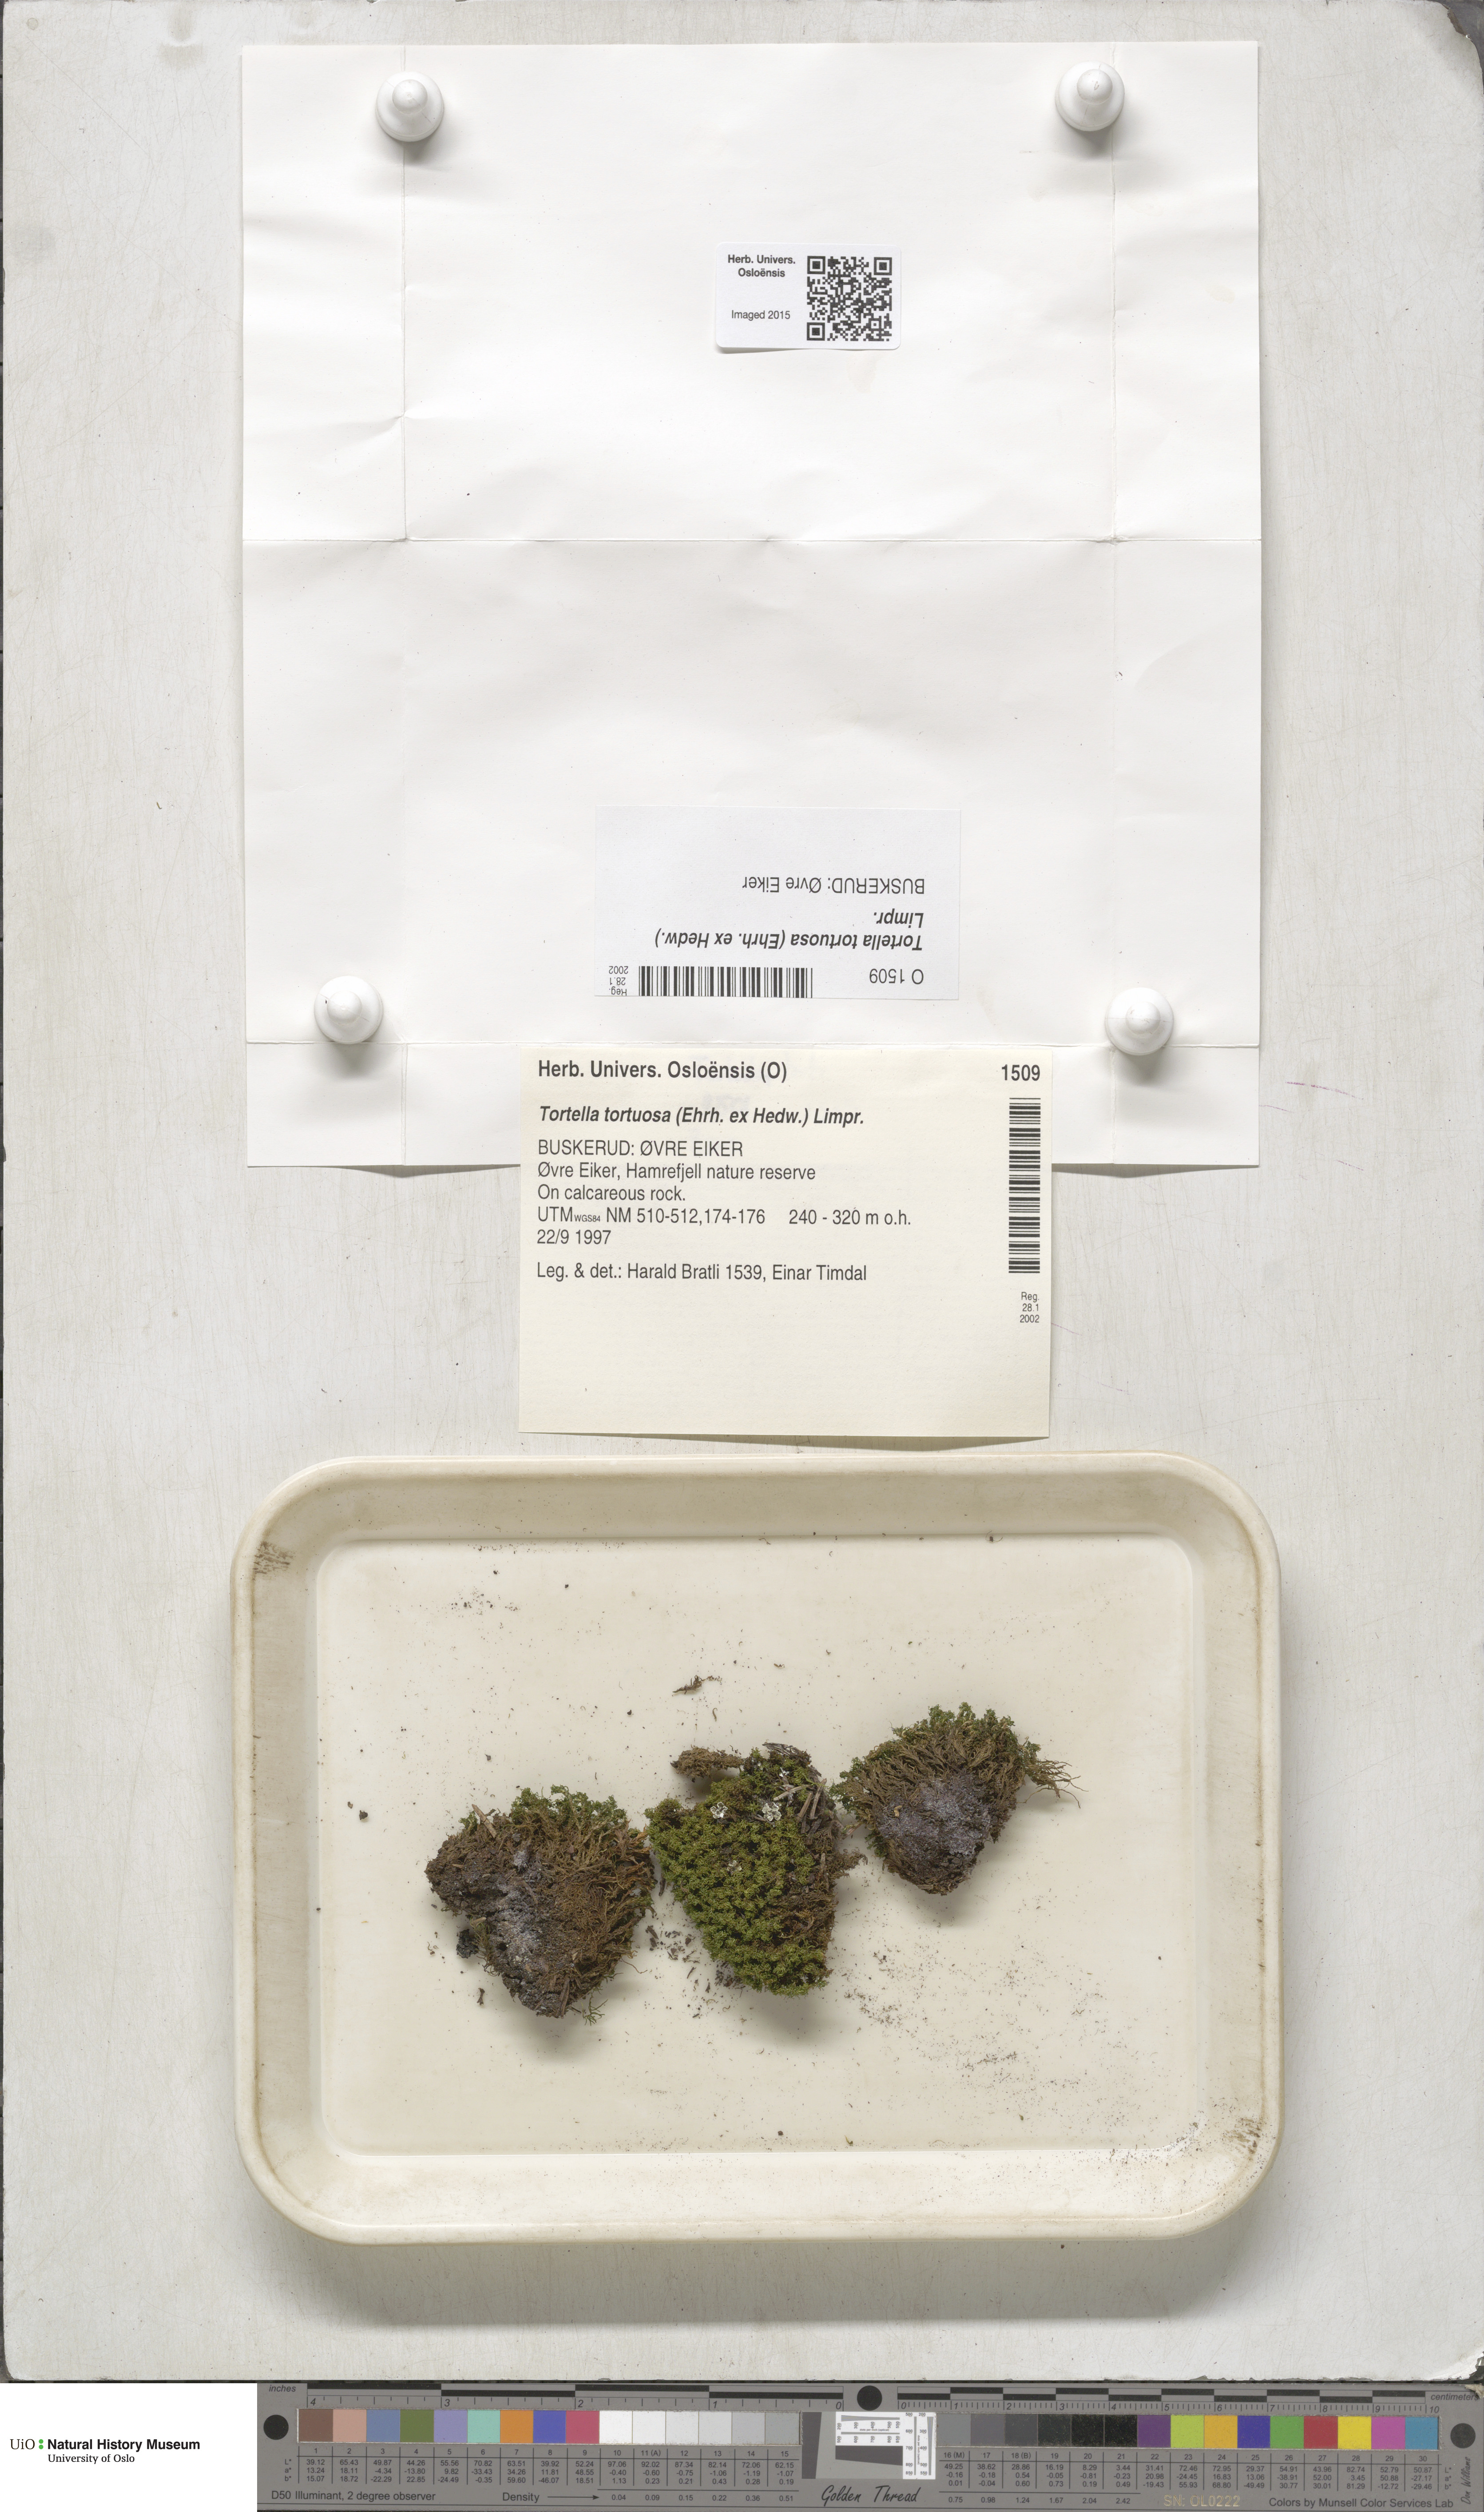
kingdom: Plantae
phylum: Bryophyta
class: Bryopsida
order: Pottiales
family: Pottiaceae
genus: Tortella
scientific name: Tortella tortuosa
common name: Frizzled crisp moss
